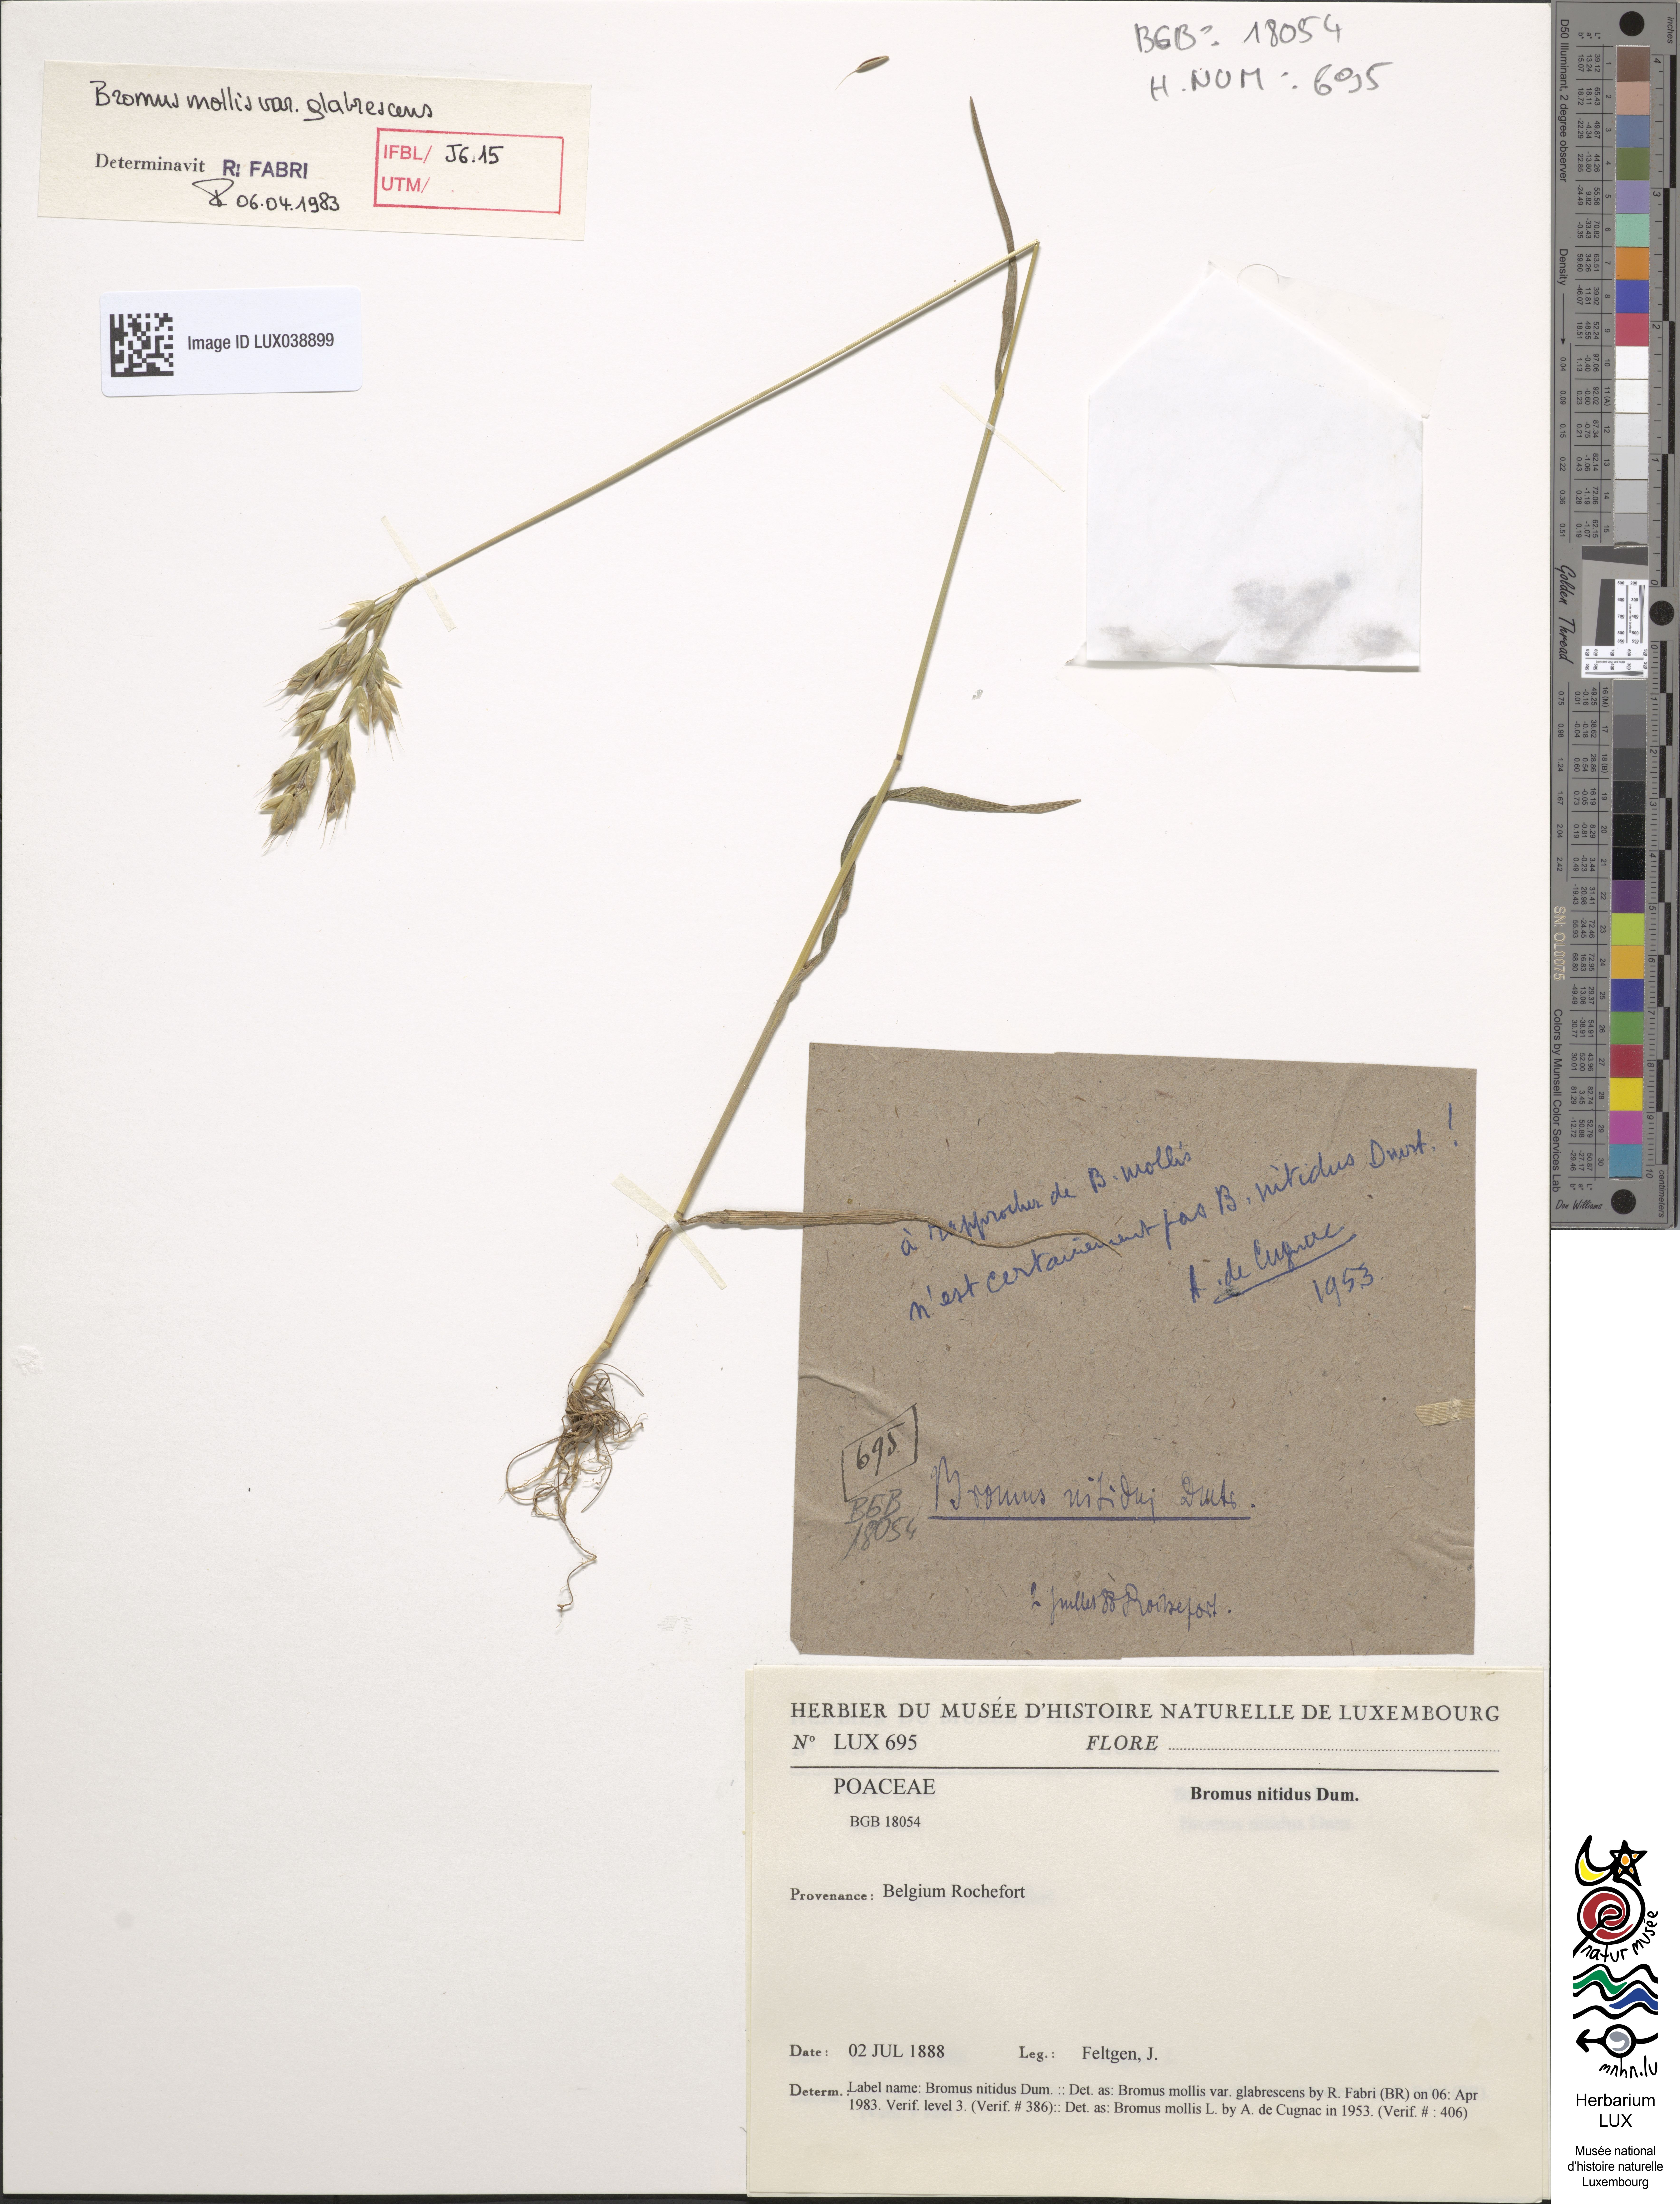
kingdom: Plantae
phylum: Tracheophyta
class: Liliopsida
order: Poales
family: Poaceae
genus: Bromus
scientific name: Bromus grossus
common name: Whiskered brome
